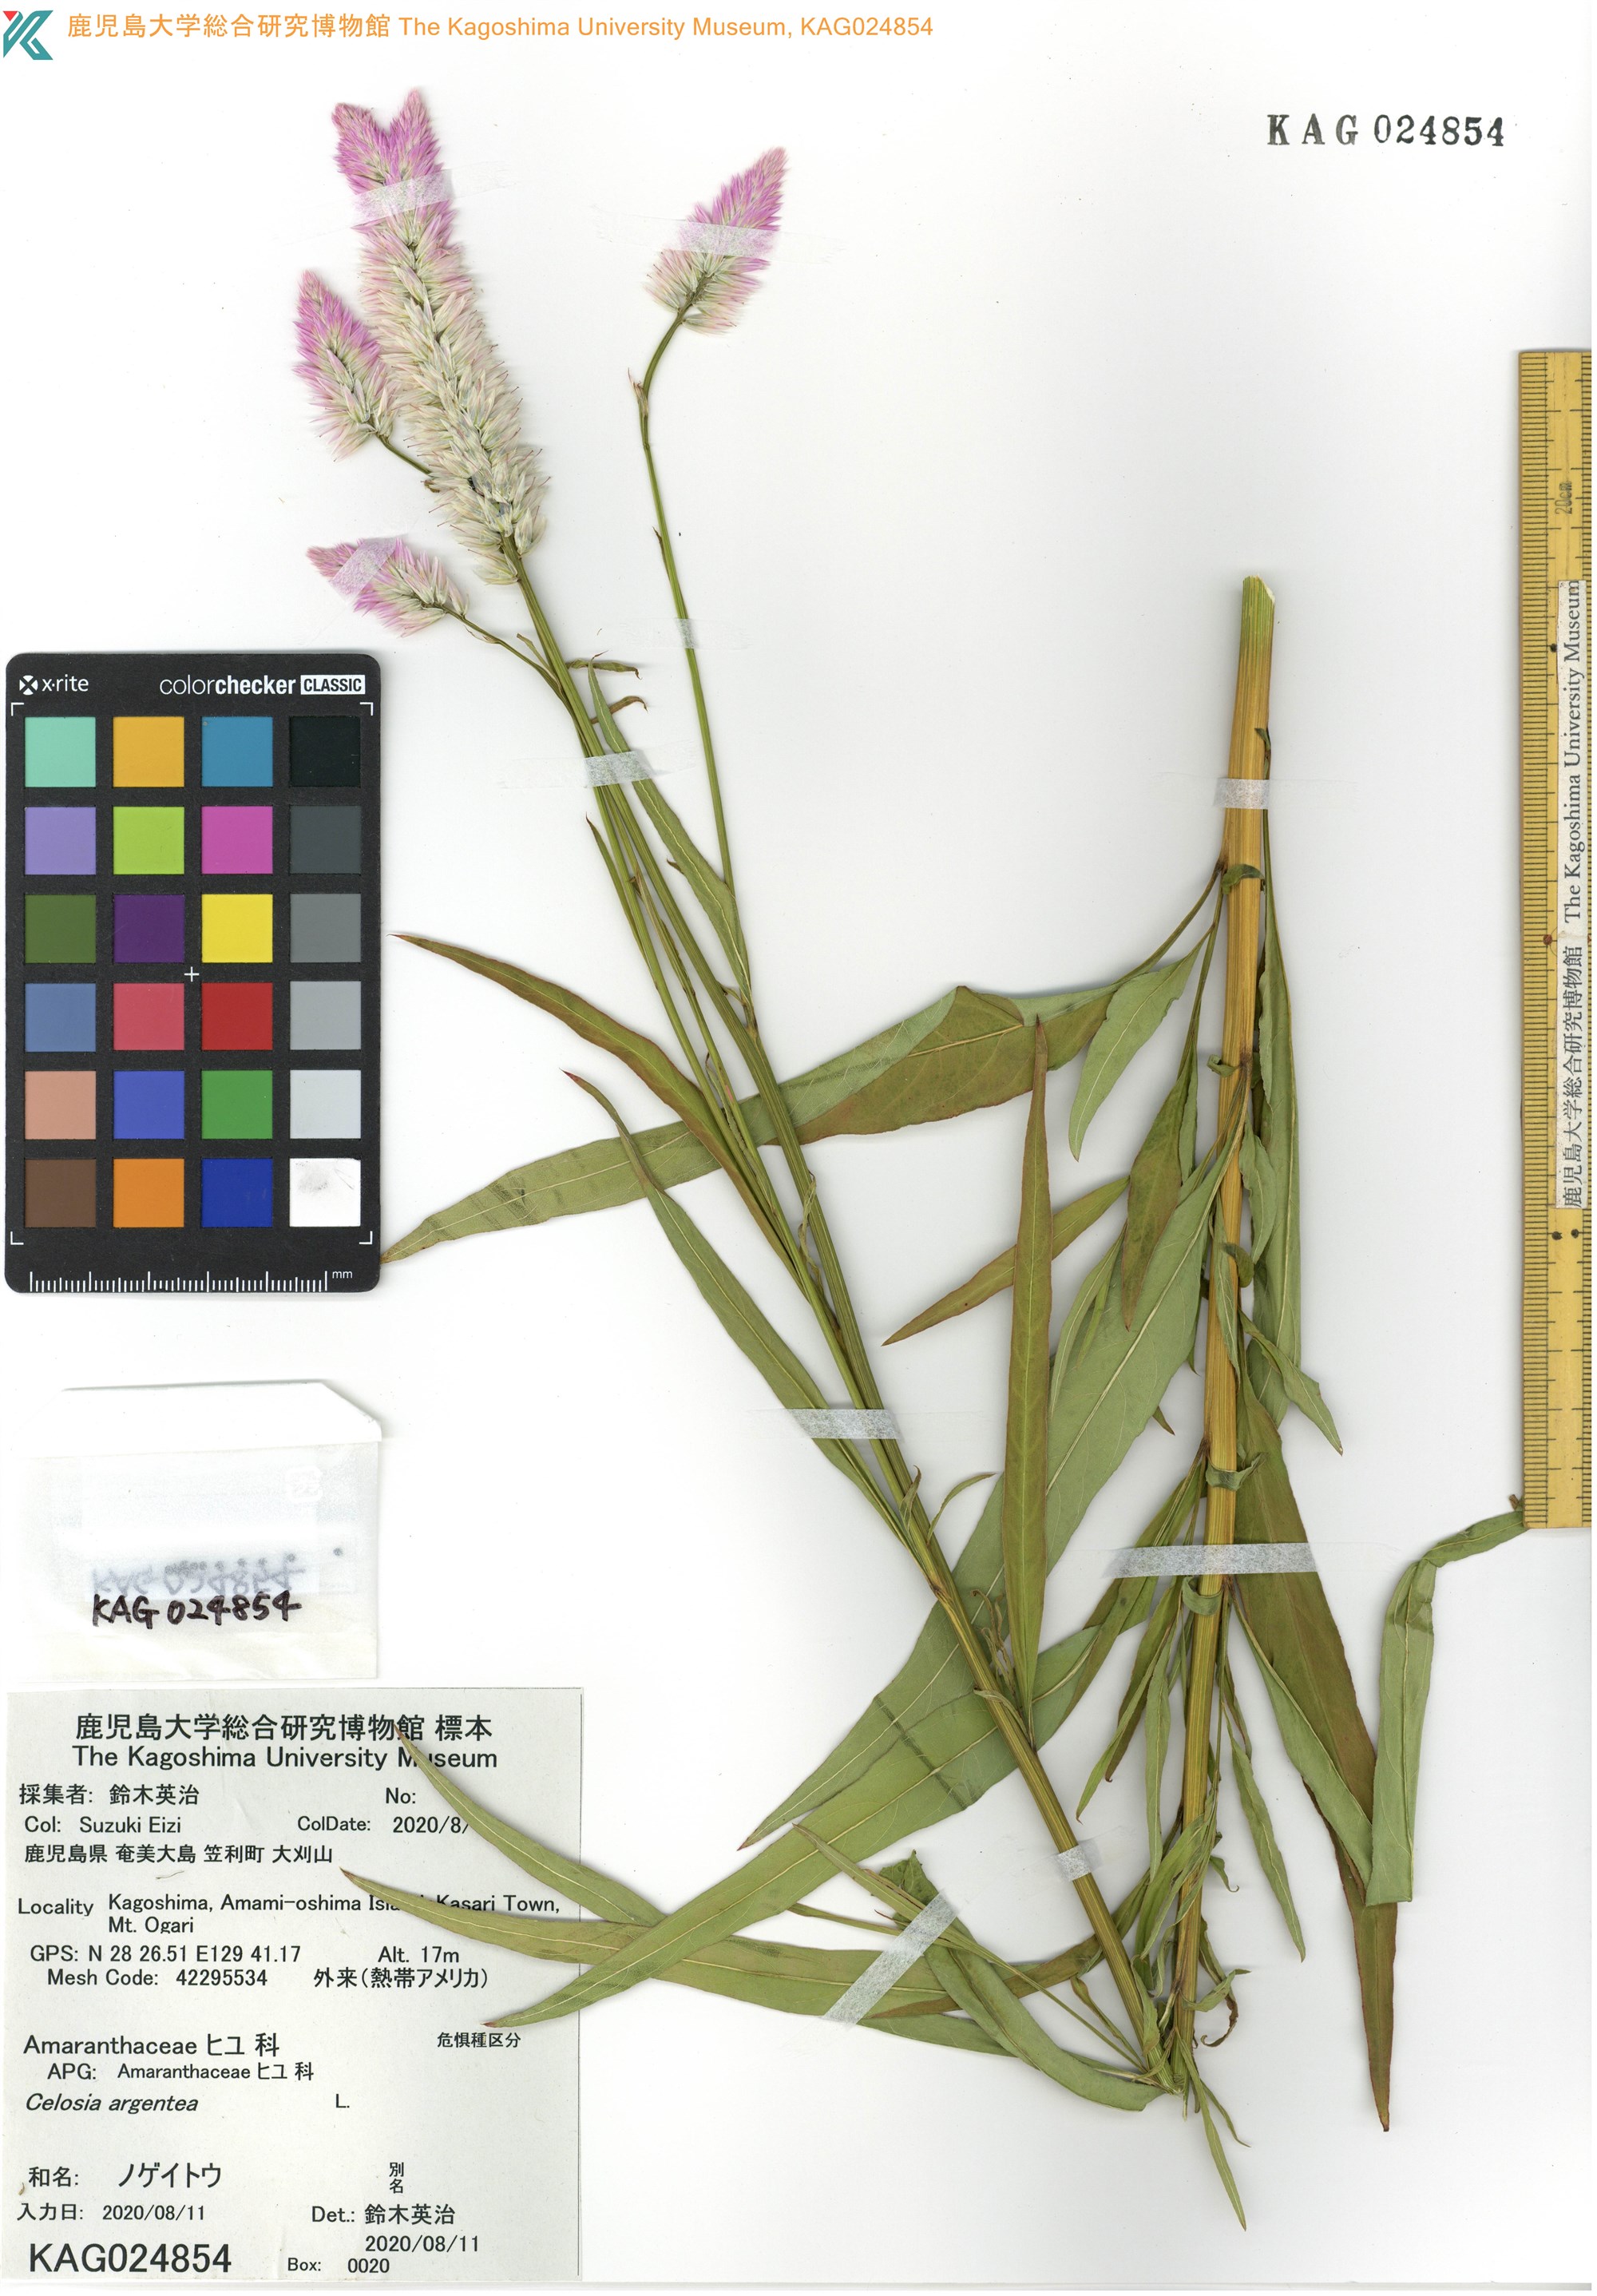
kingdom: Plantae
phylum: Tracheophyta
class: Magnoliopsida
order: Caryophyllales
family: Amaranthaceae
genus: Celosia
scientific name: Celosia argentea
